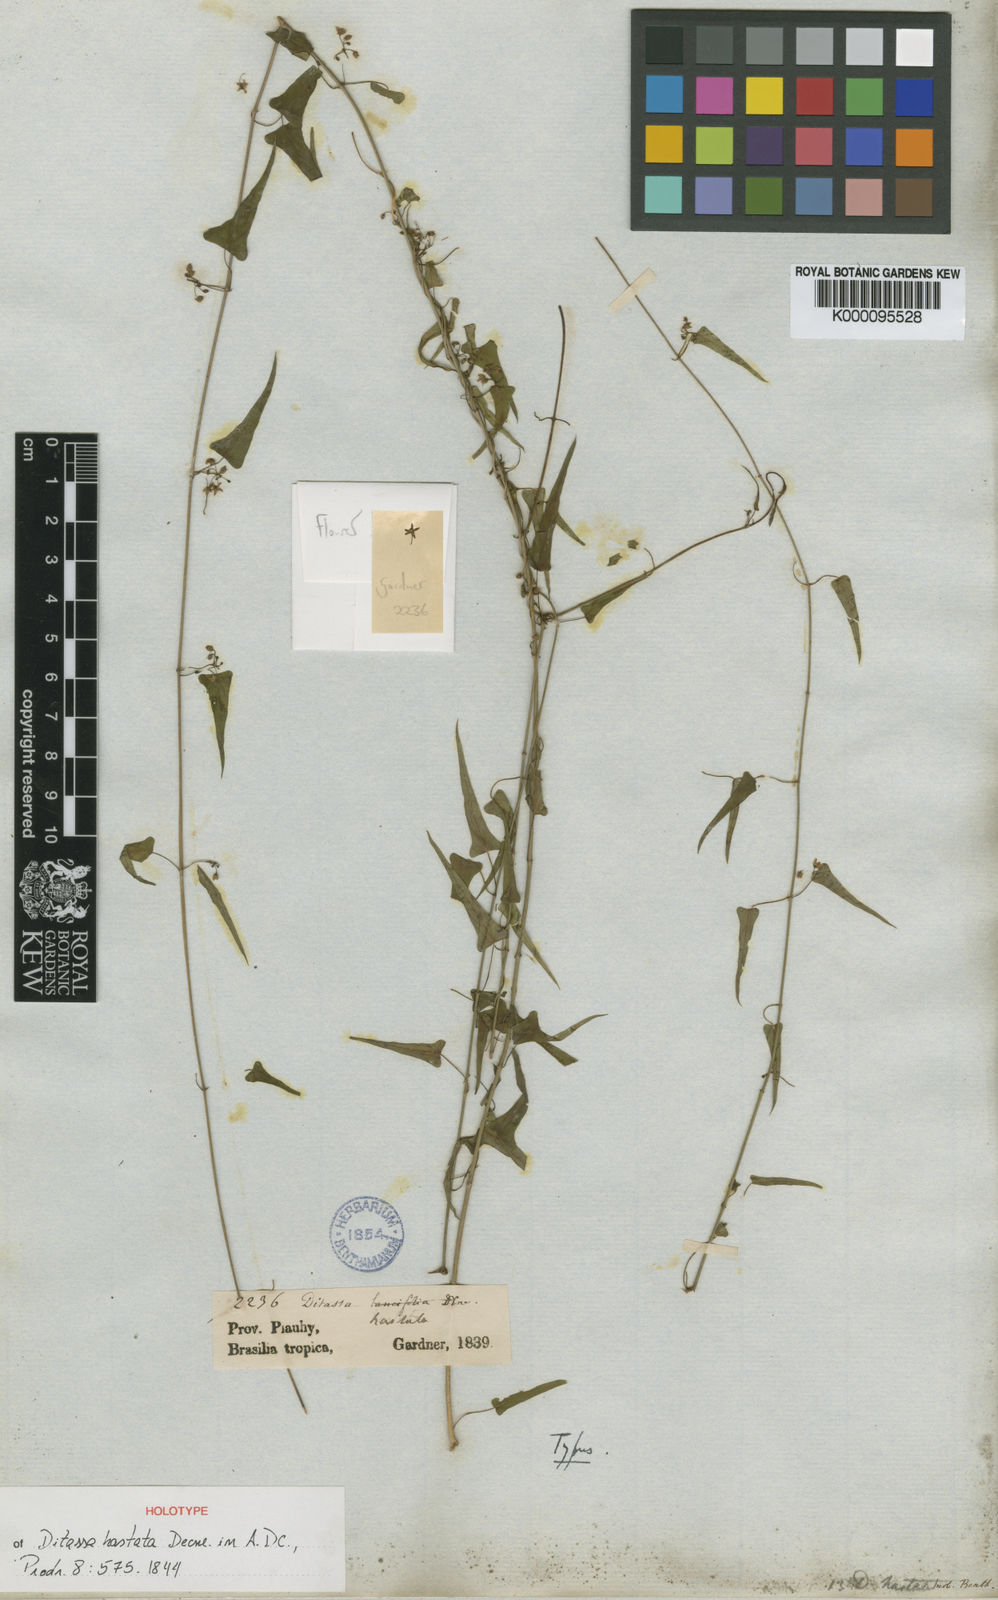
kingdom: Plantae
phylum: Tracheophyta
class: Magnoliopsida
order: Gentianales
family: Apocynaceae
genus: Ditassa
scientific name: Ditassa hastata
